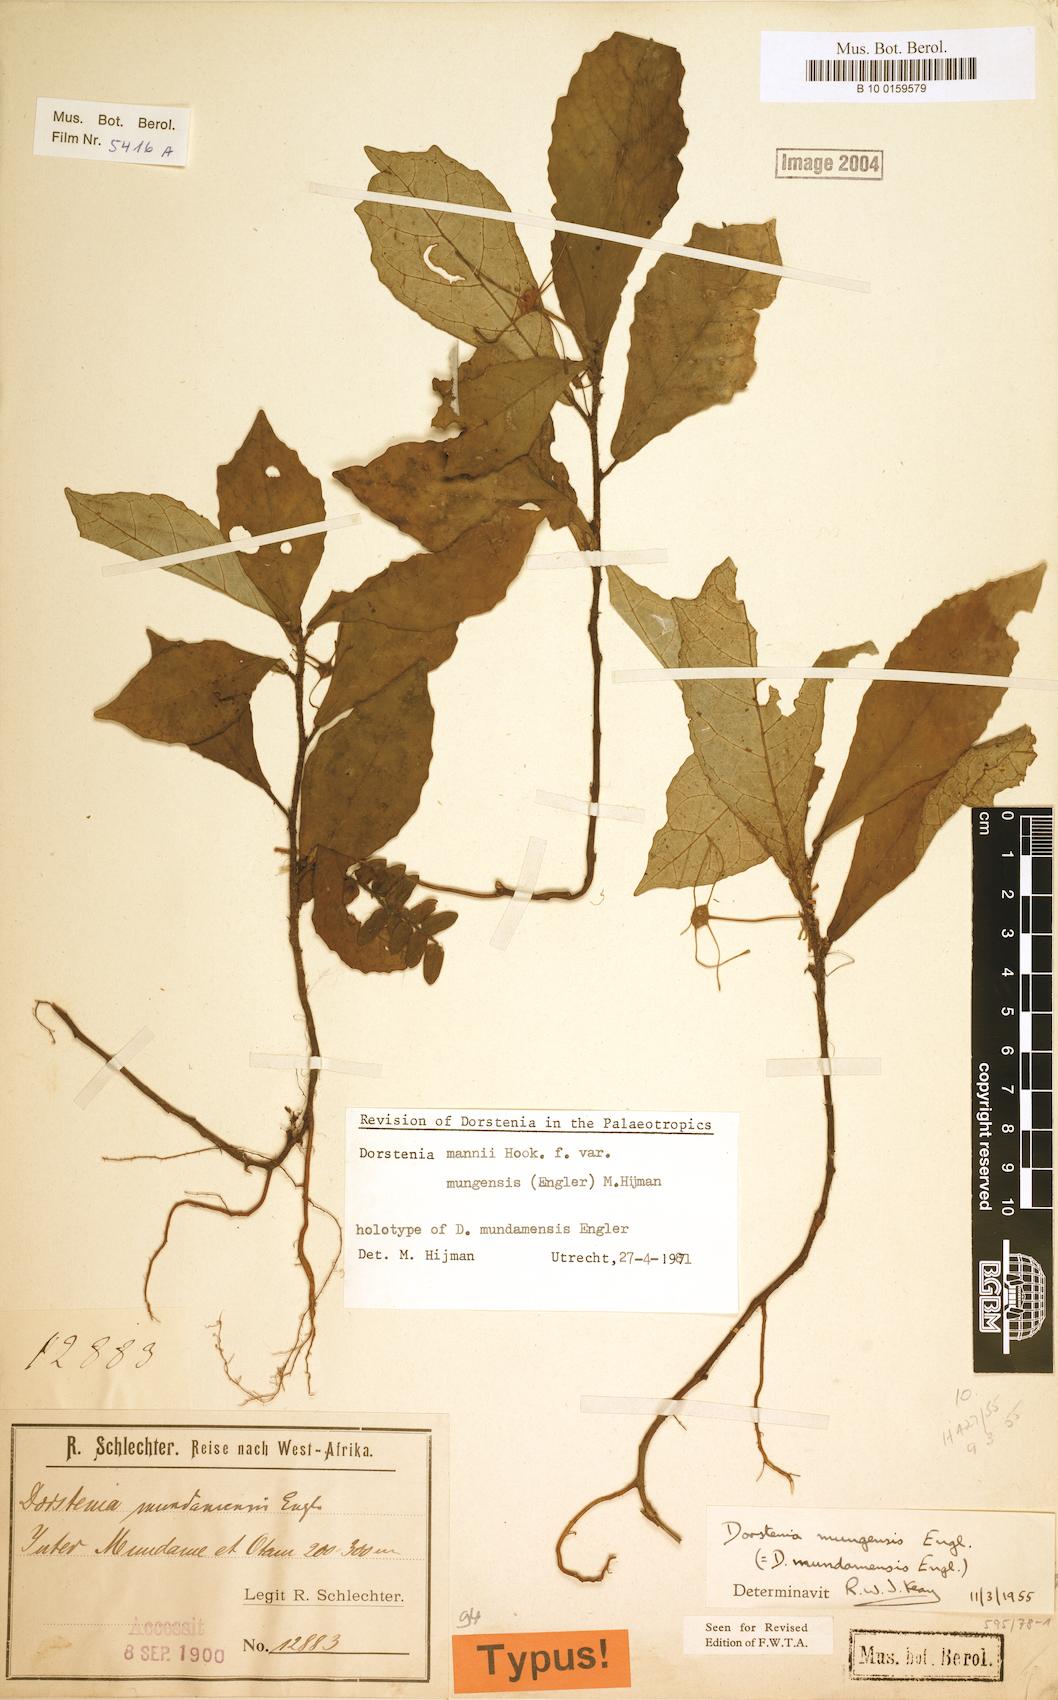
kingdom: Plantae
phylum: Tracheophyta
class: Magnoliopsida
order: Rosales
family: Moraceae
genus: Dorstenia
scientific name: Dorstenia mannii
